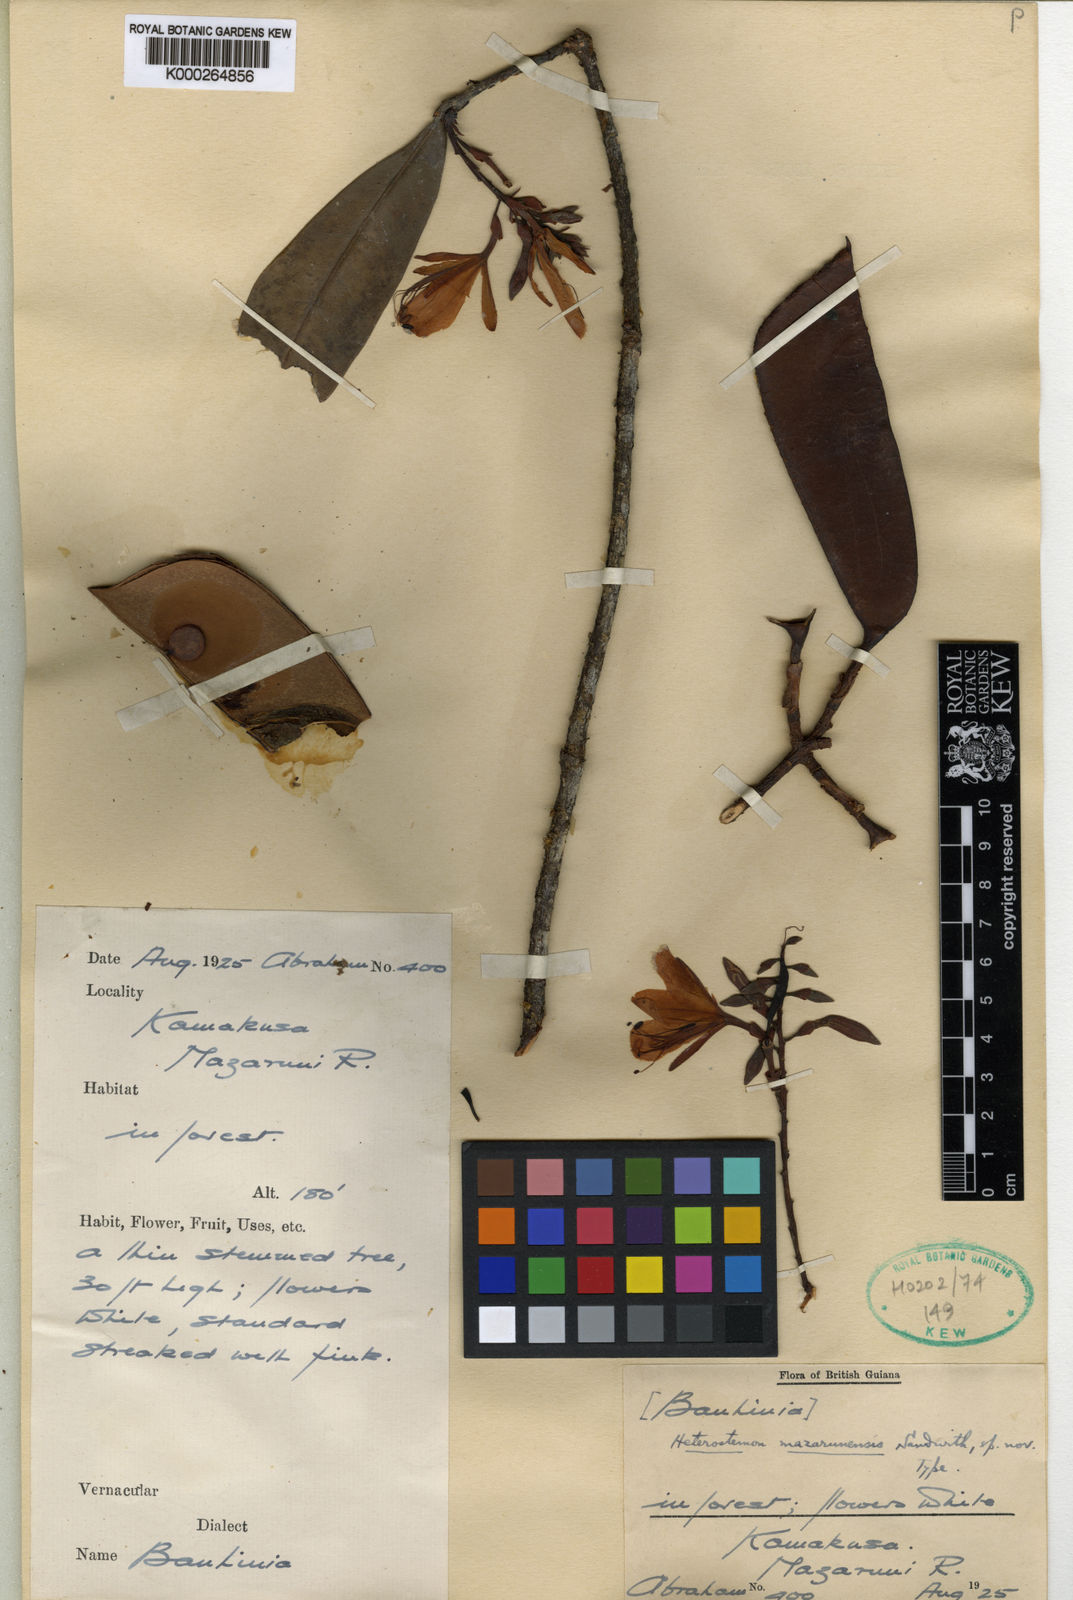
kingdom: Plantae
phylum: Tracheophyta
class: Magnoliopsida
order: Fabales
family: Fabaceae
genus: Heterostemon
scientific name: Heterostemon mazarunensis
